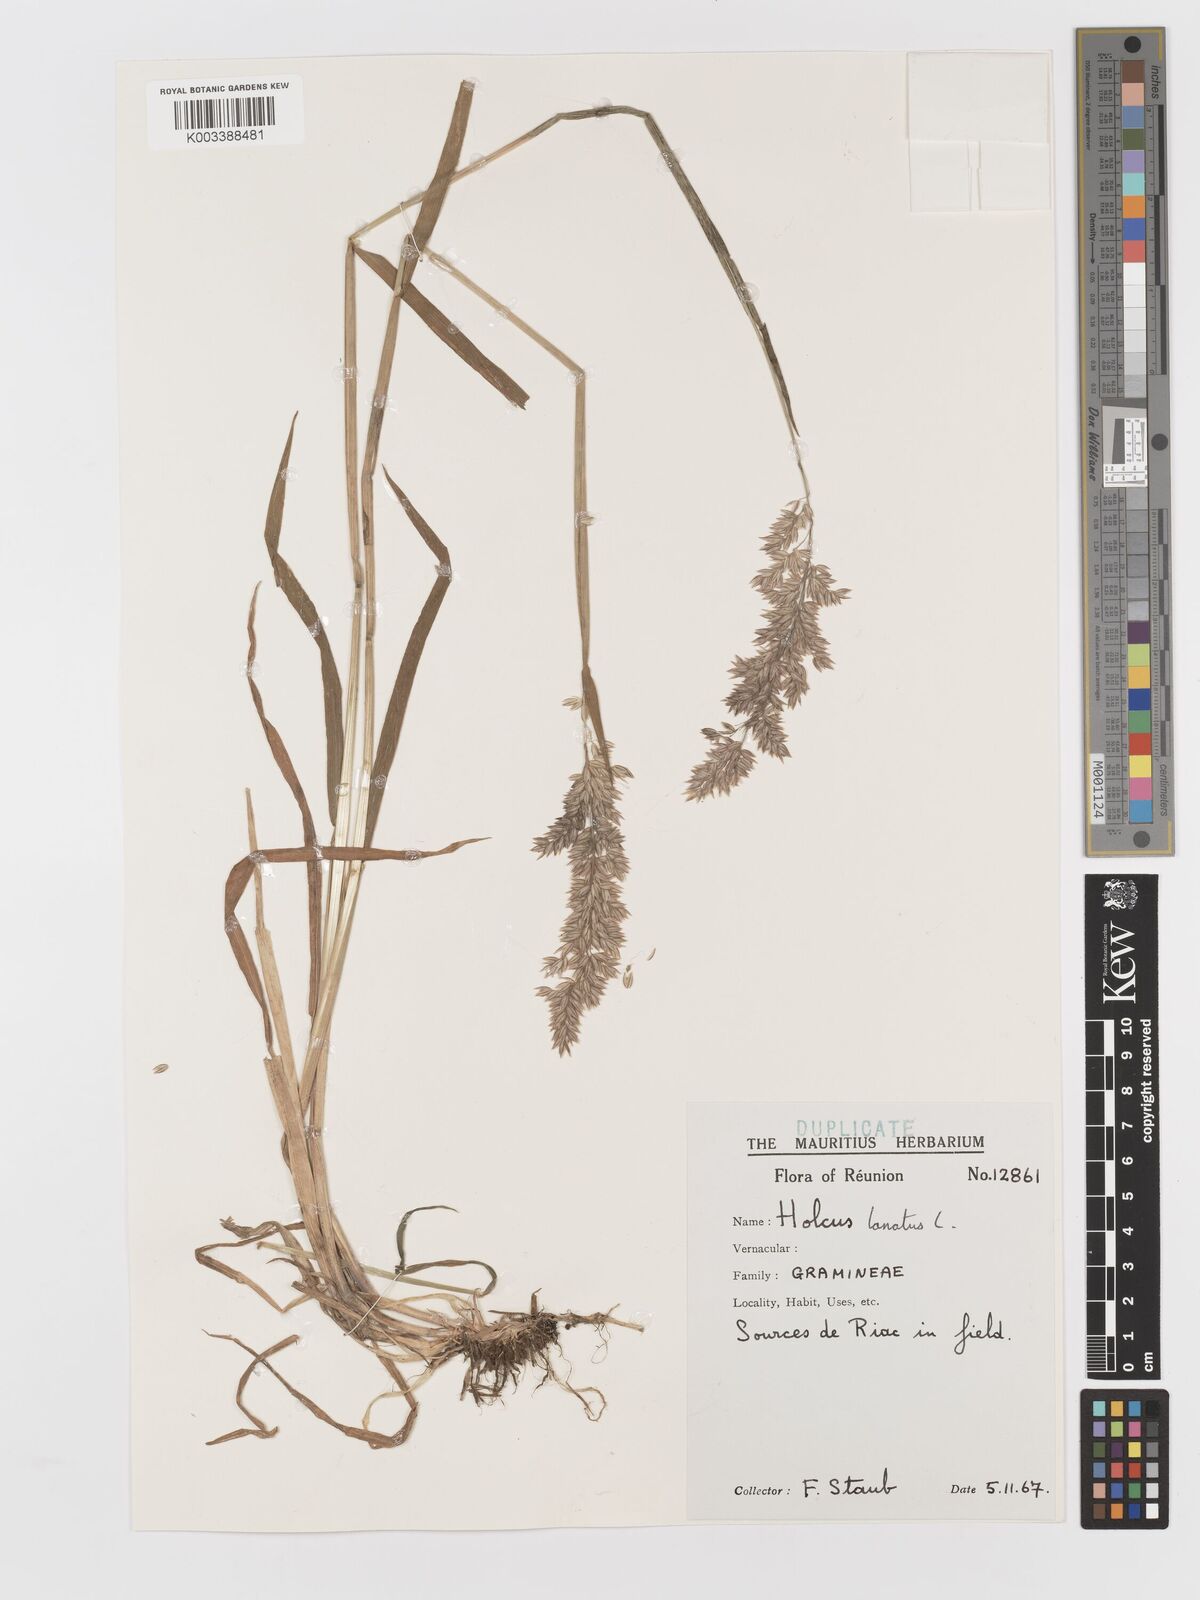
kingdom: Plantae
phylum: Tracheophyta
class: Liliopsida
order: Poales
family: Poaceae
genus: Holcus
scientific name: Holcus lanatus
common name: Yorkshire-fog
